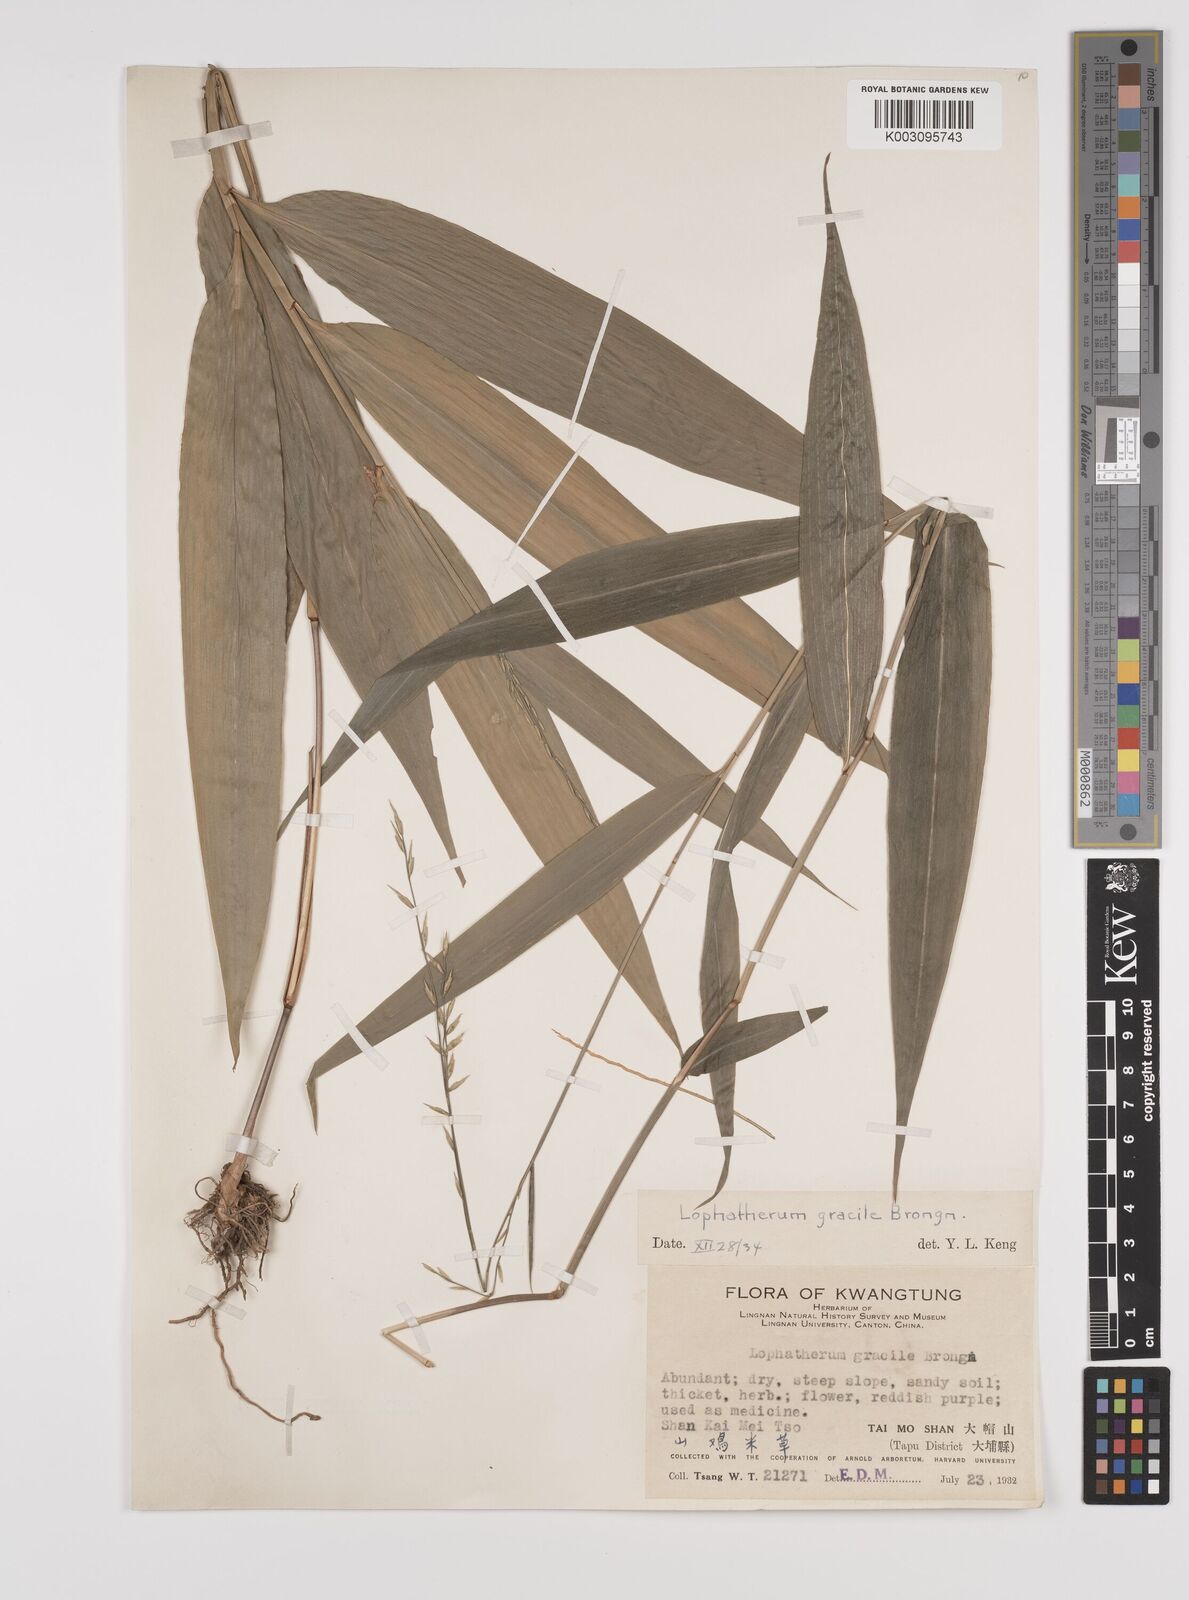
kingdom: Plantae
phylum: Tracheophyta
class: Liliopsida
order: Poales
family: Poaceae
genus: Lophatherum
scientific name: Lophatherum gracile
